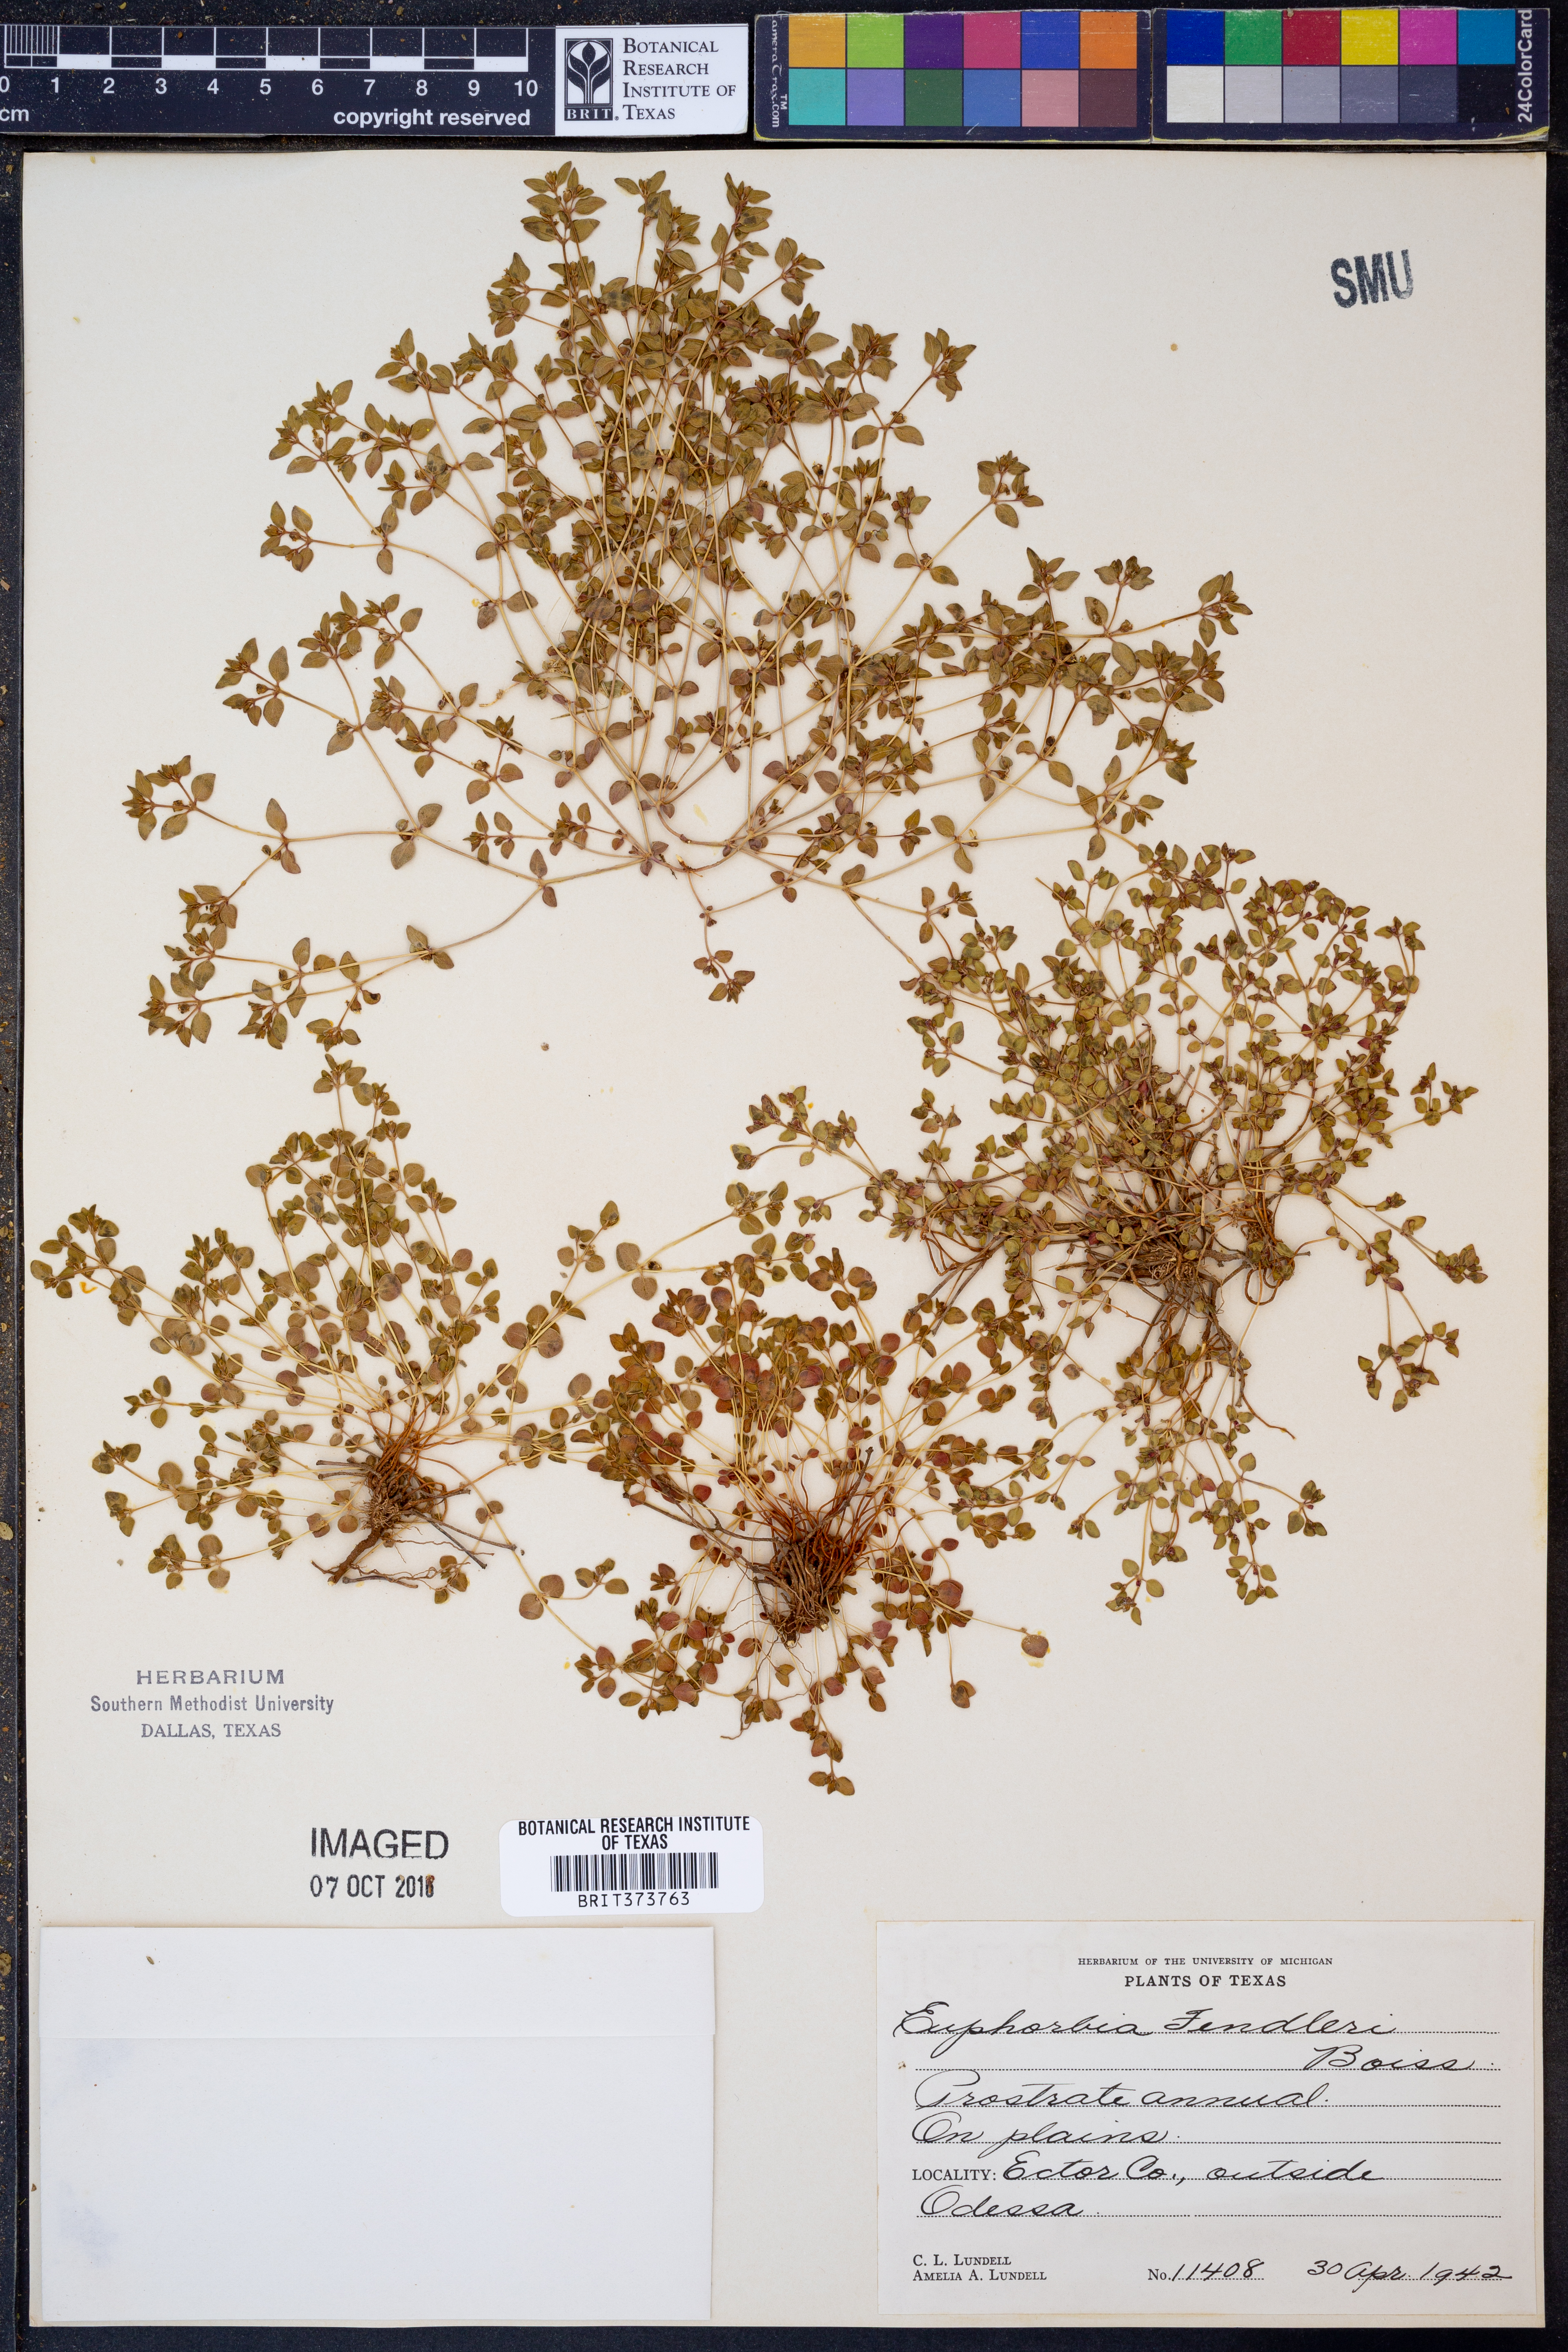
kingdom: Plantae
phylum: Tracheophyta
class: Magnoliopsida
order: Malpighiales
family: Euphorbiaceae
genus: Euphorbia
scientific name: Euphorbia fendleri
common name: Fendler's euphorbia
